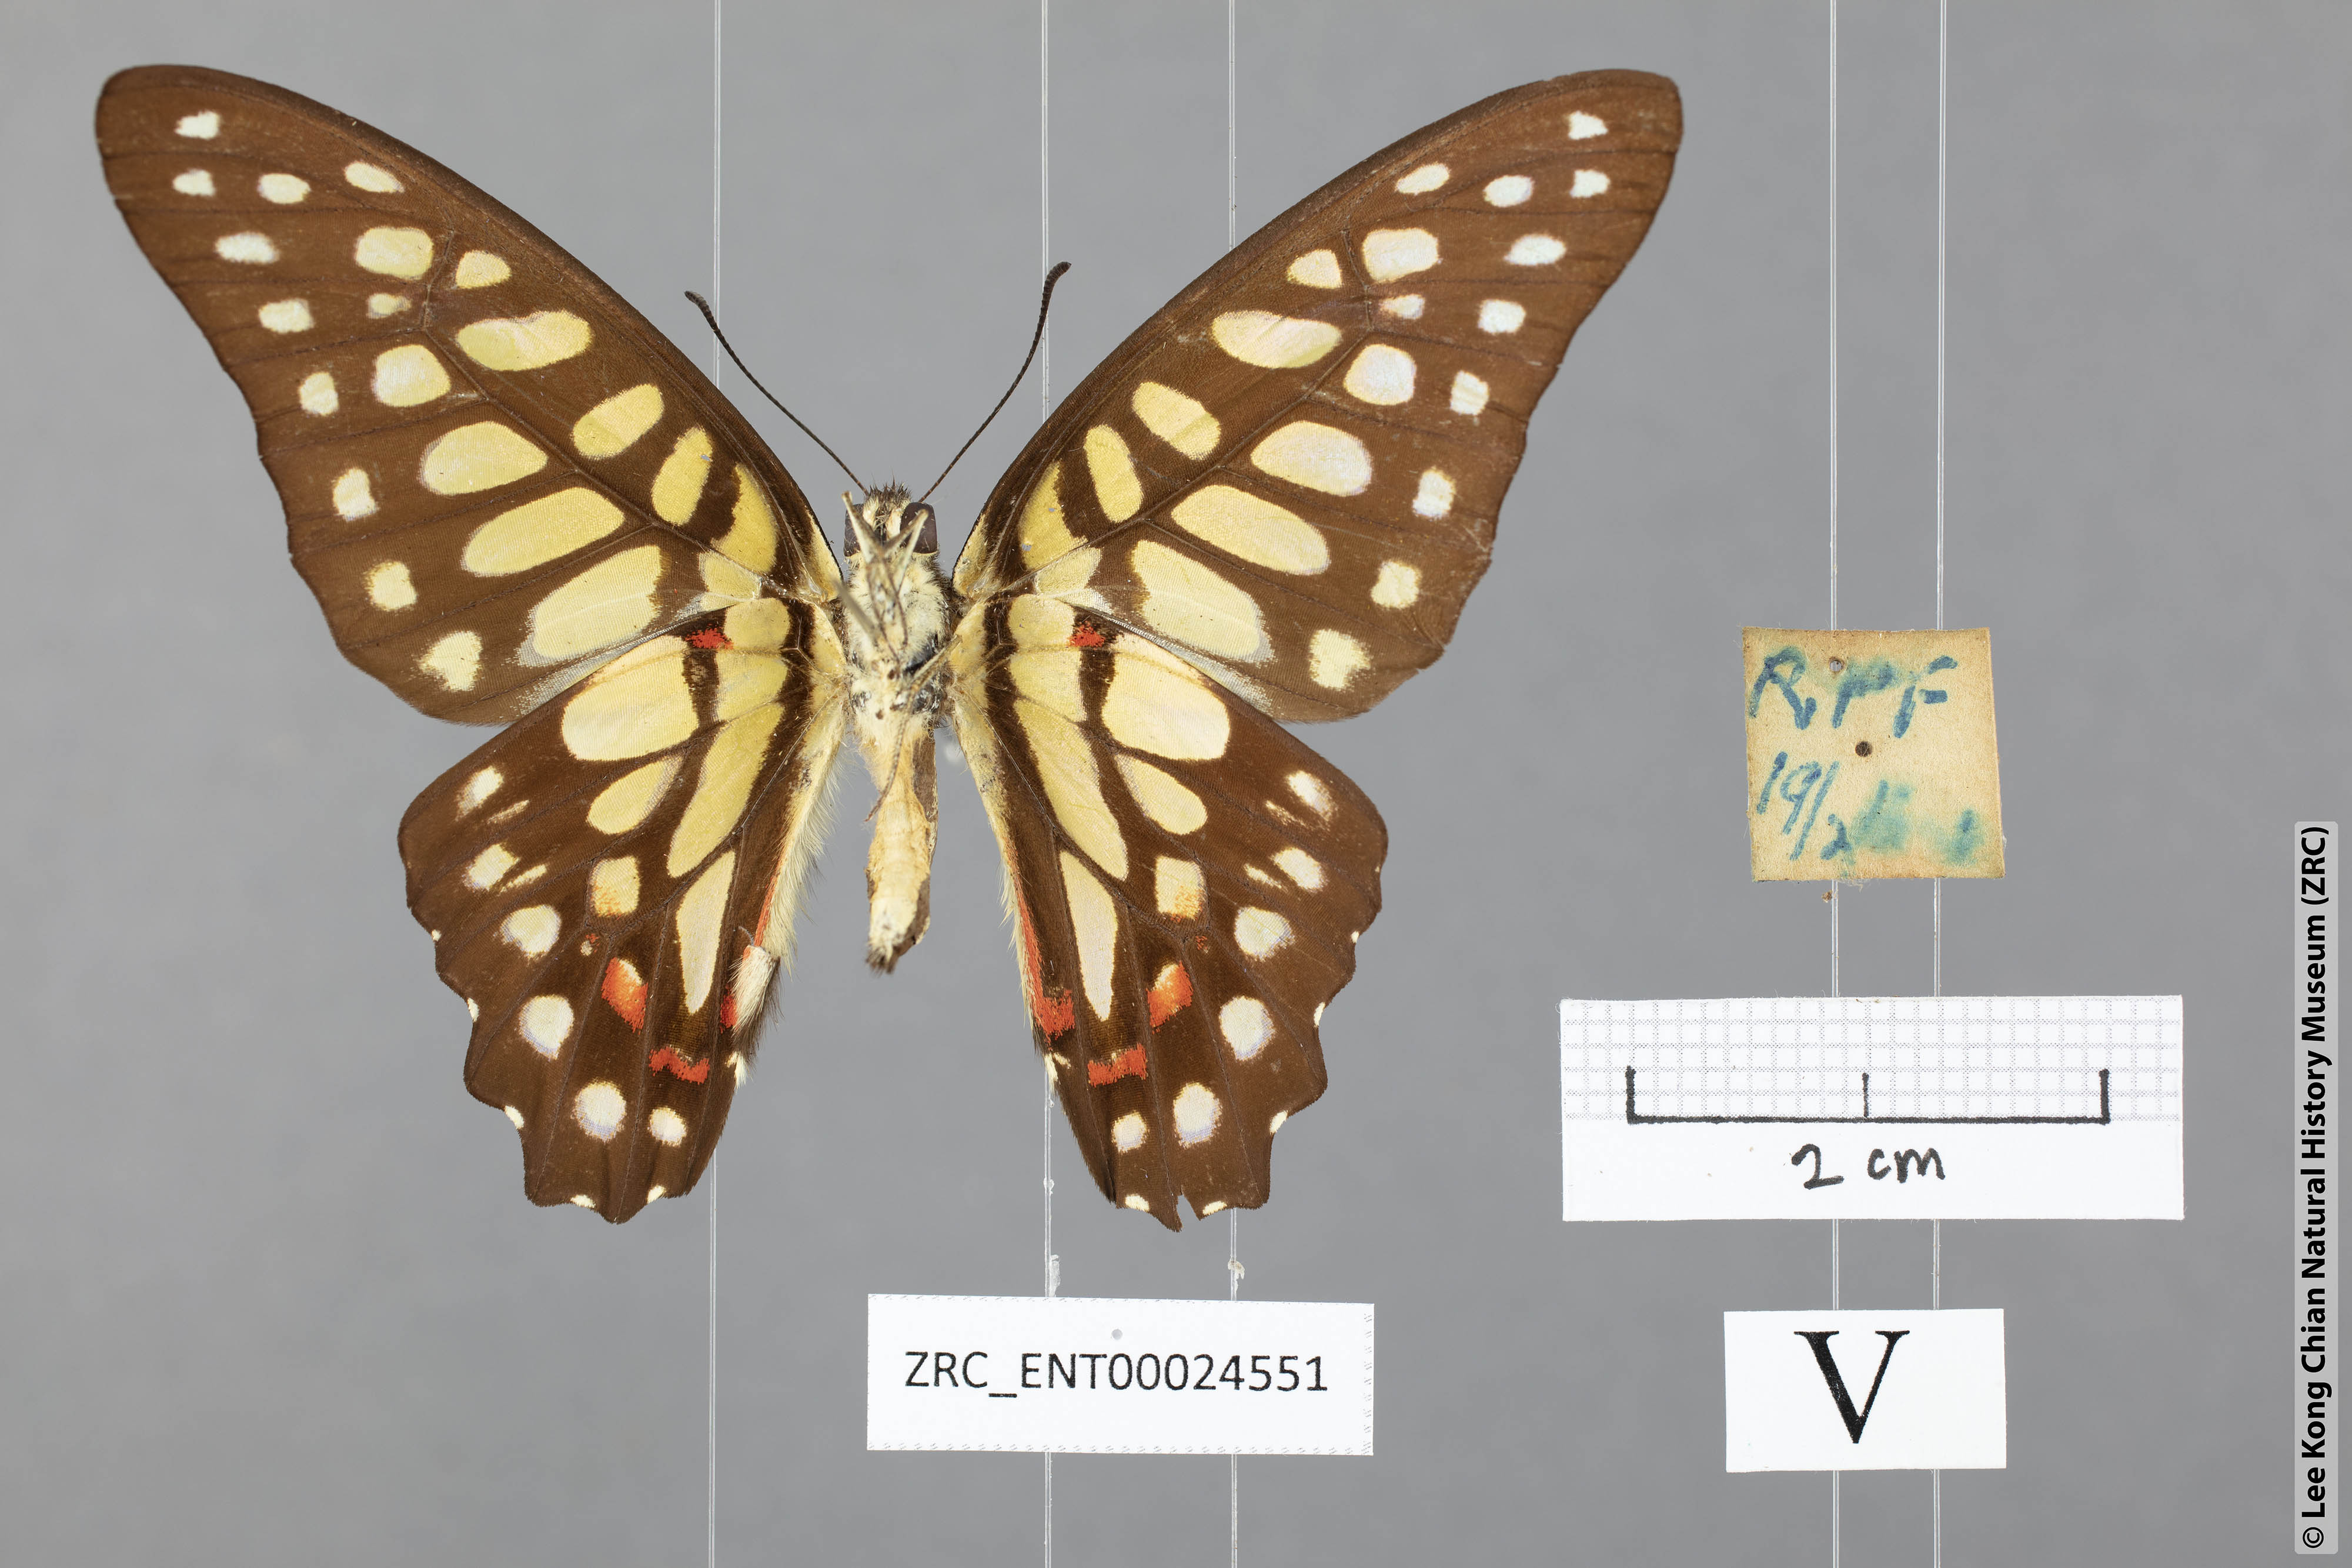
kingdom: Animalia
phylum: Arthropoda
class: Insecta
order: Lepidoptera
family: Papilionidae
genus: Graphium
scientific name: Graphium arycles
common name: Spotted jay
